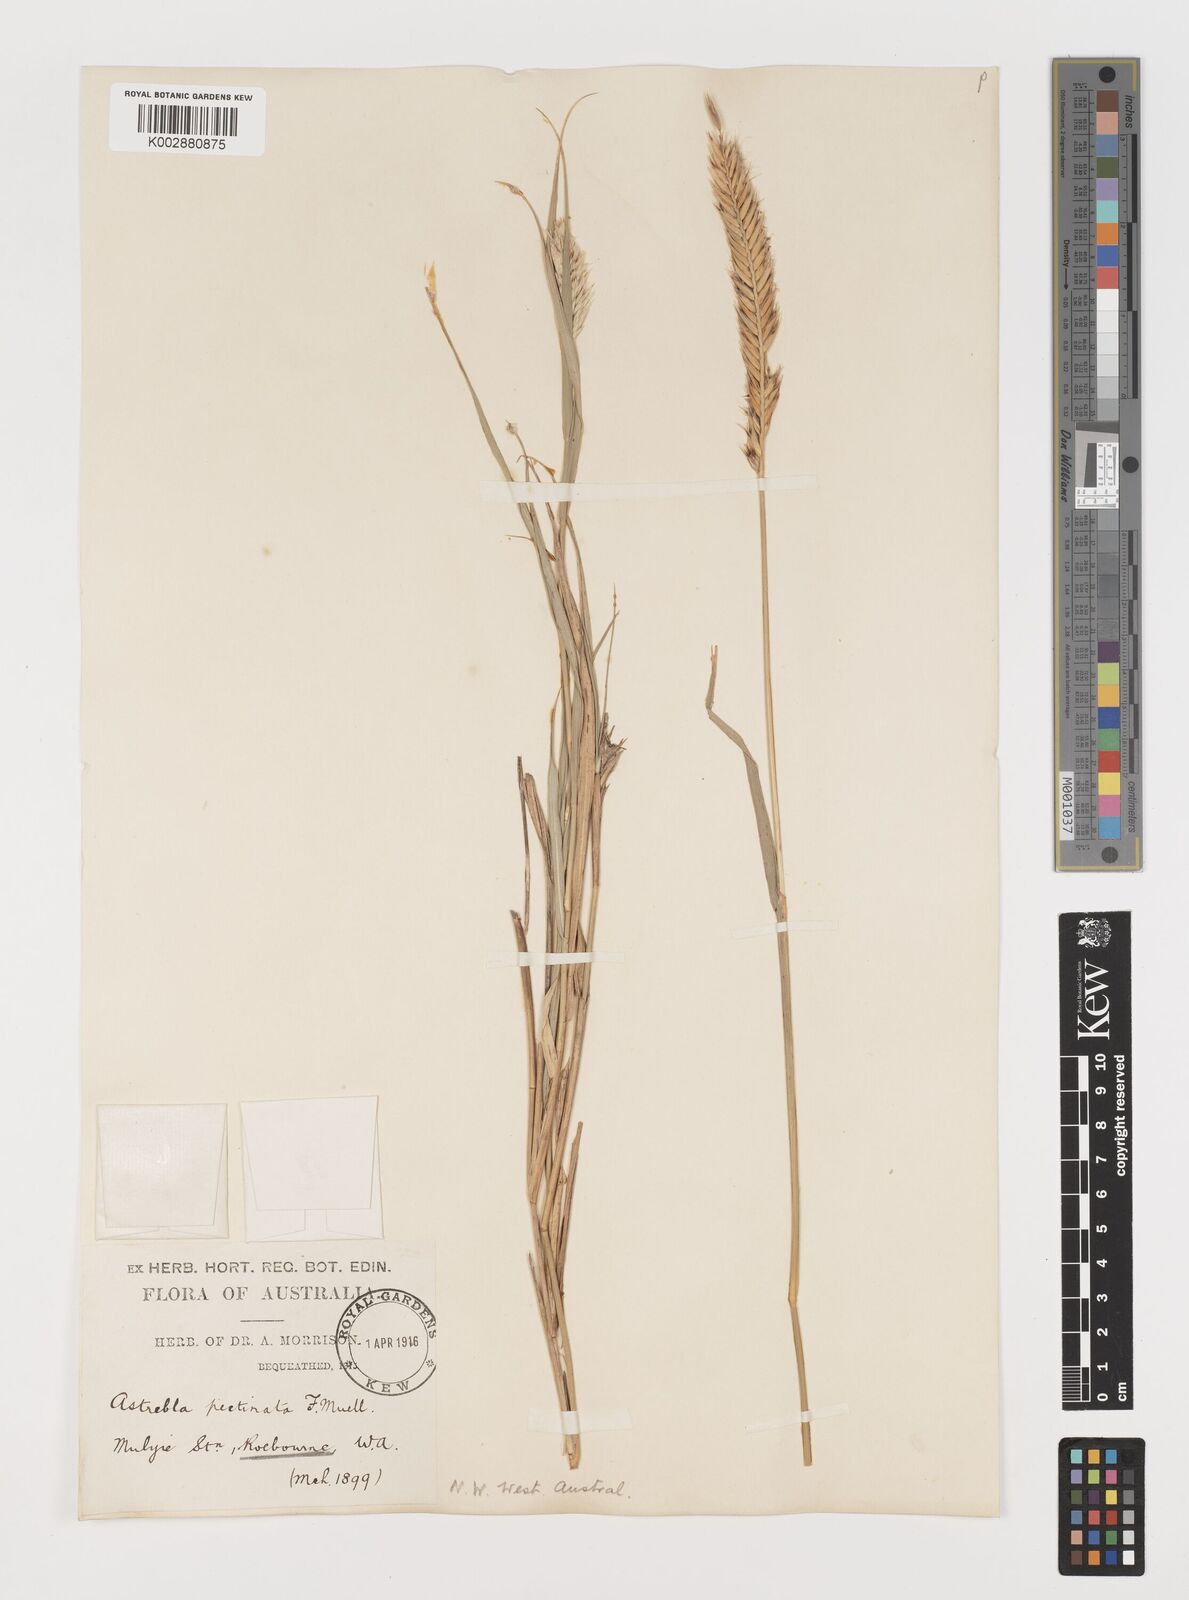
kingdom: Plantae
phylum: Tracheophyta
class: Liliopsida
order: Poales
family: Poaceae
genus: Astrebla
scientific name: Astrebla pectinata
